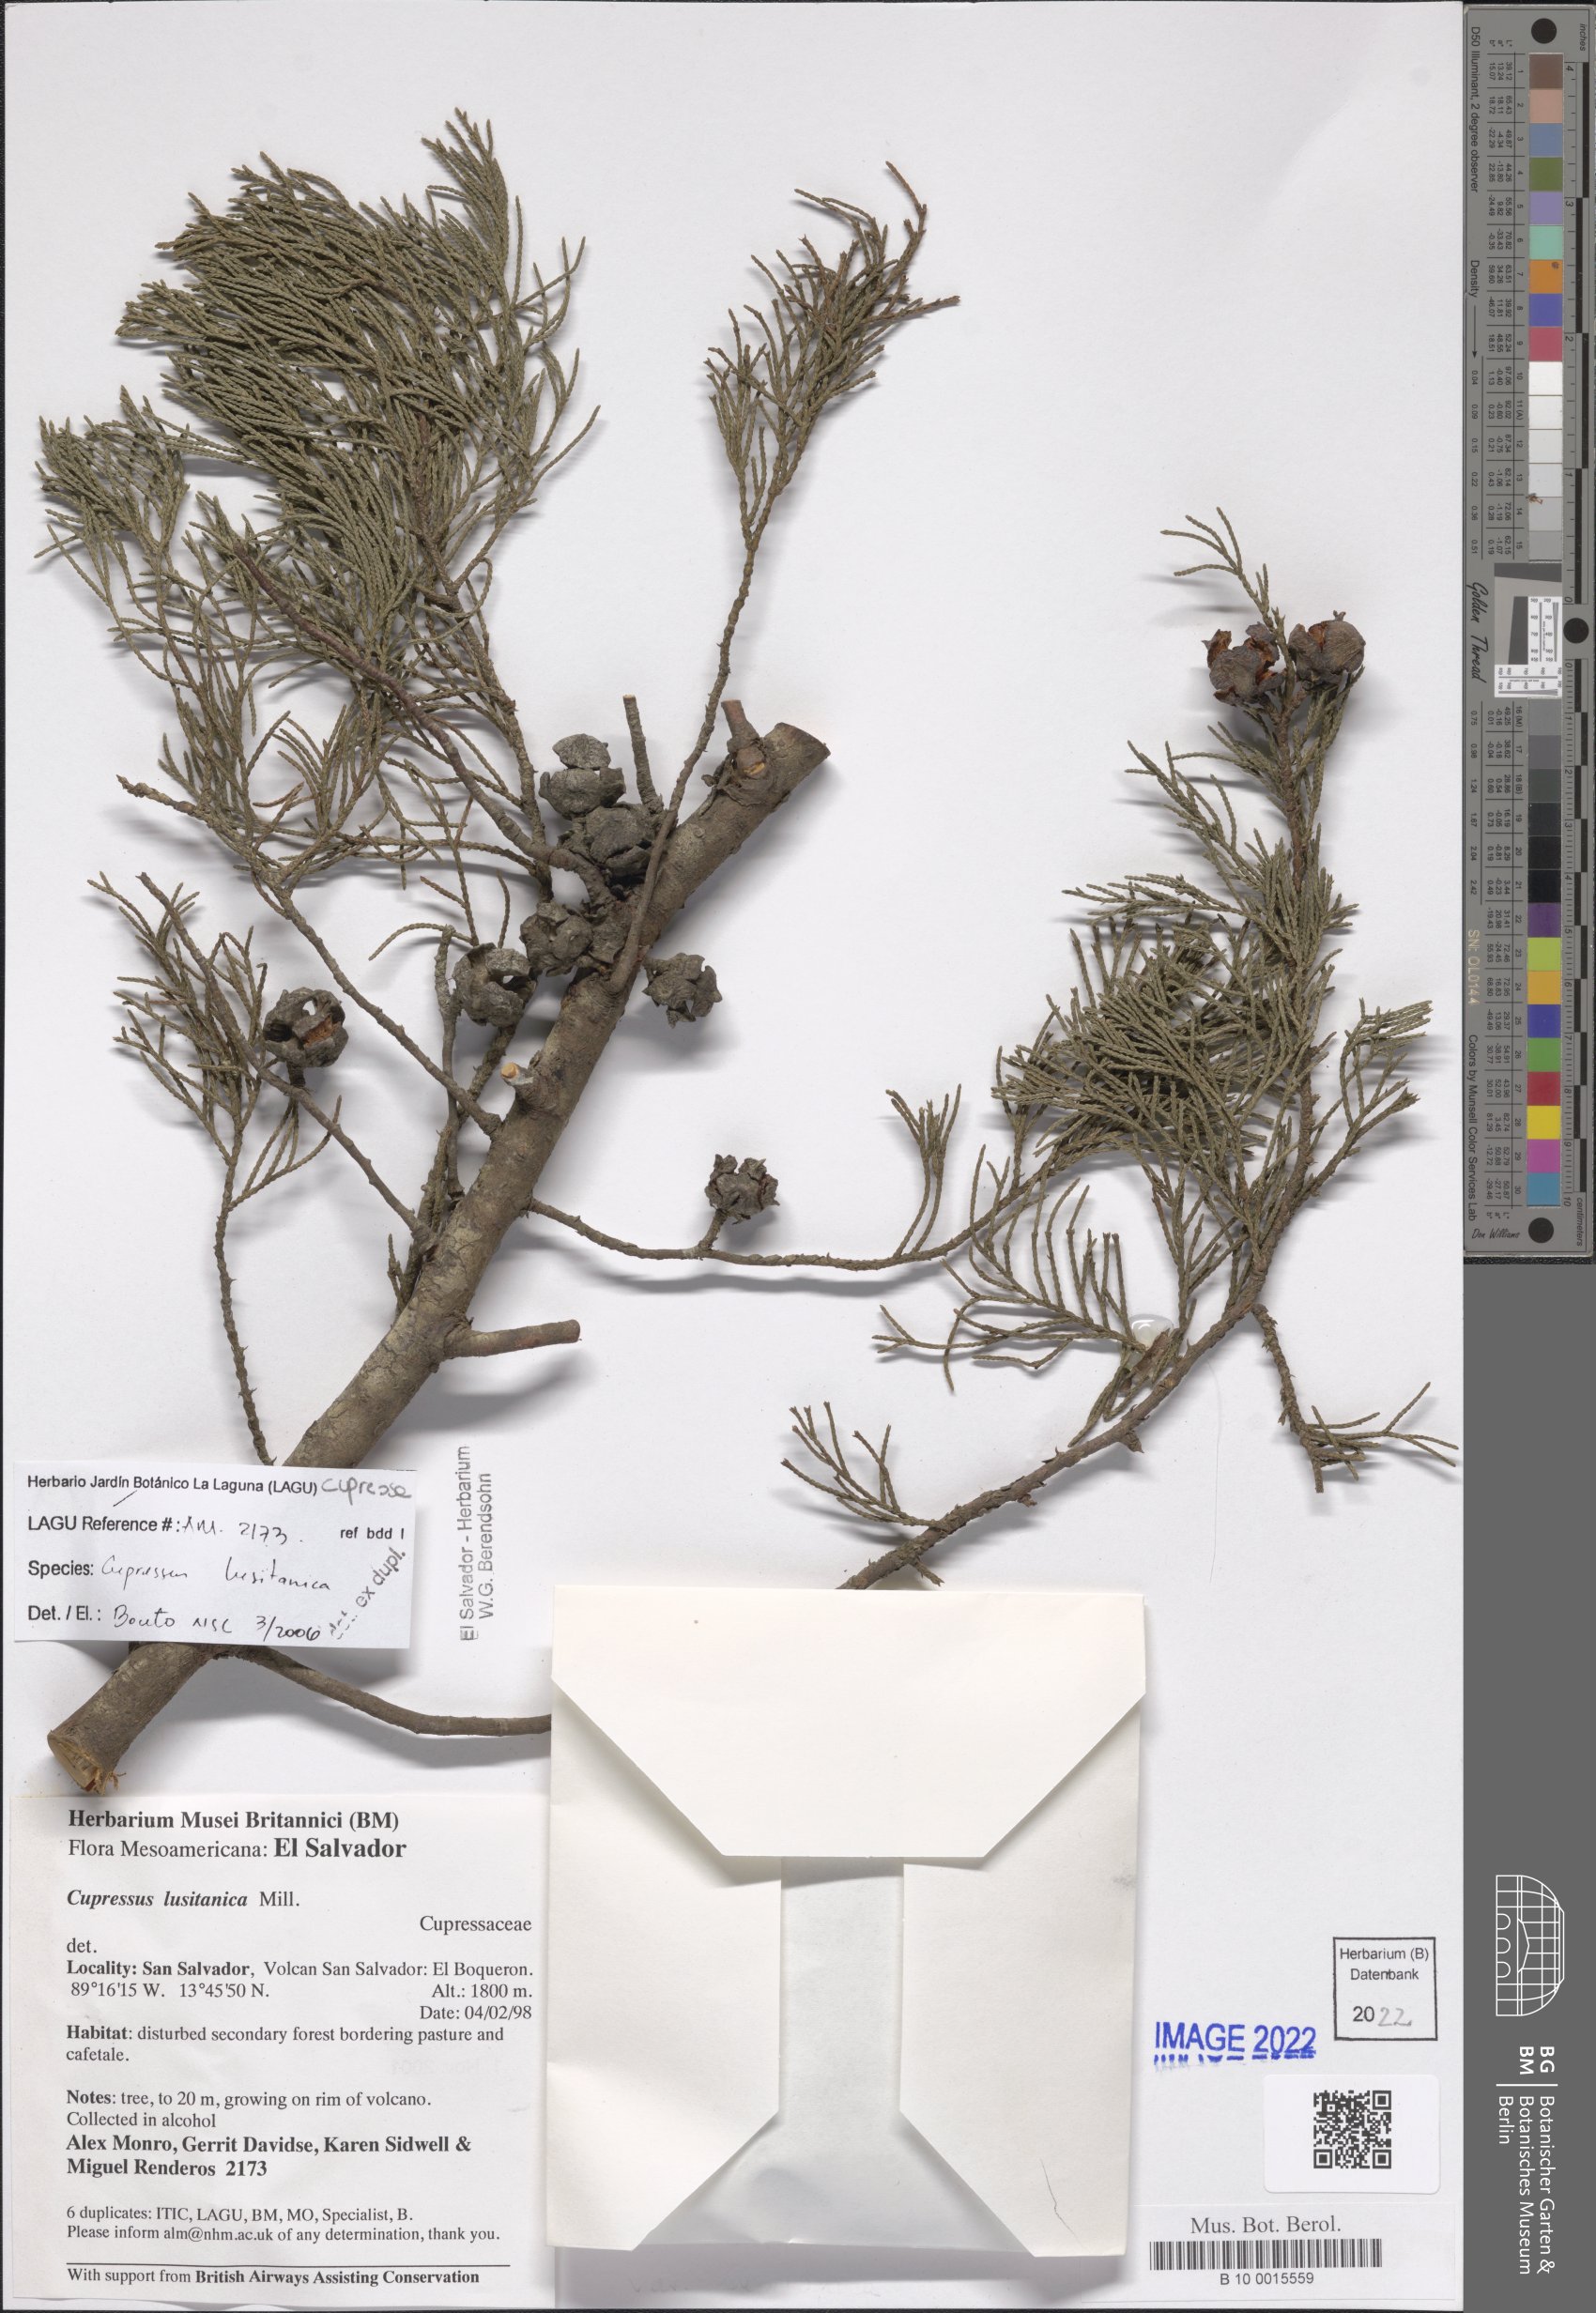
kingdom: Plantae
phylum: Tracheophyta
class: Pinopsida
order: Pinales
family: Cupressaceae
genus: Cupressus
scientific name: Cupressus lusitanica
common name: Mexican cypress
